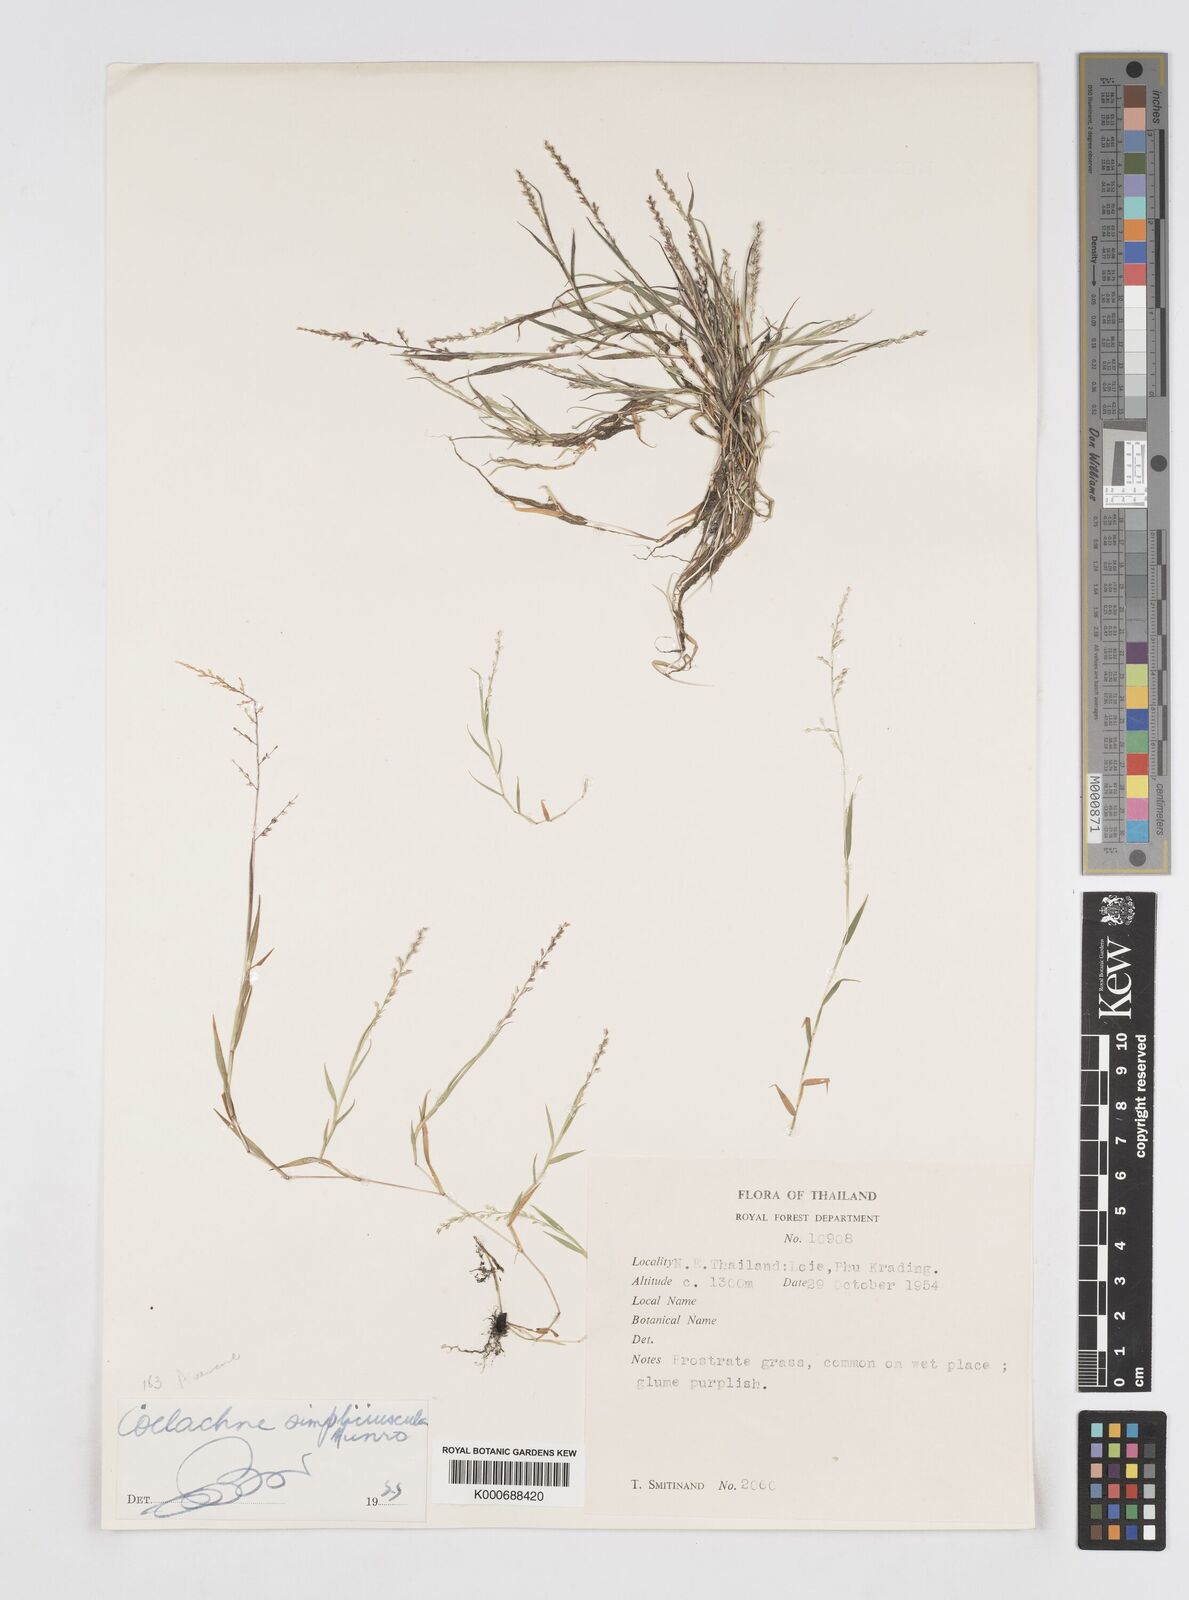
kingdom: Plantae
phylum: Tracheophyta
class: Liliopsida
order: Poales
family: Poaceae
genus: Coelachne
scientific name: Coelachne simpliciuscula
